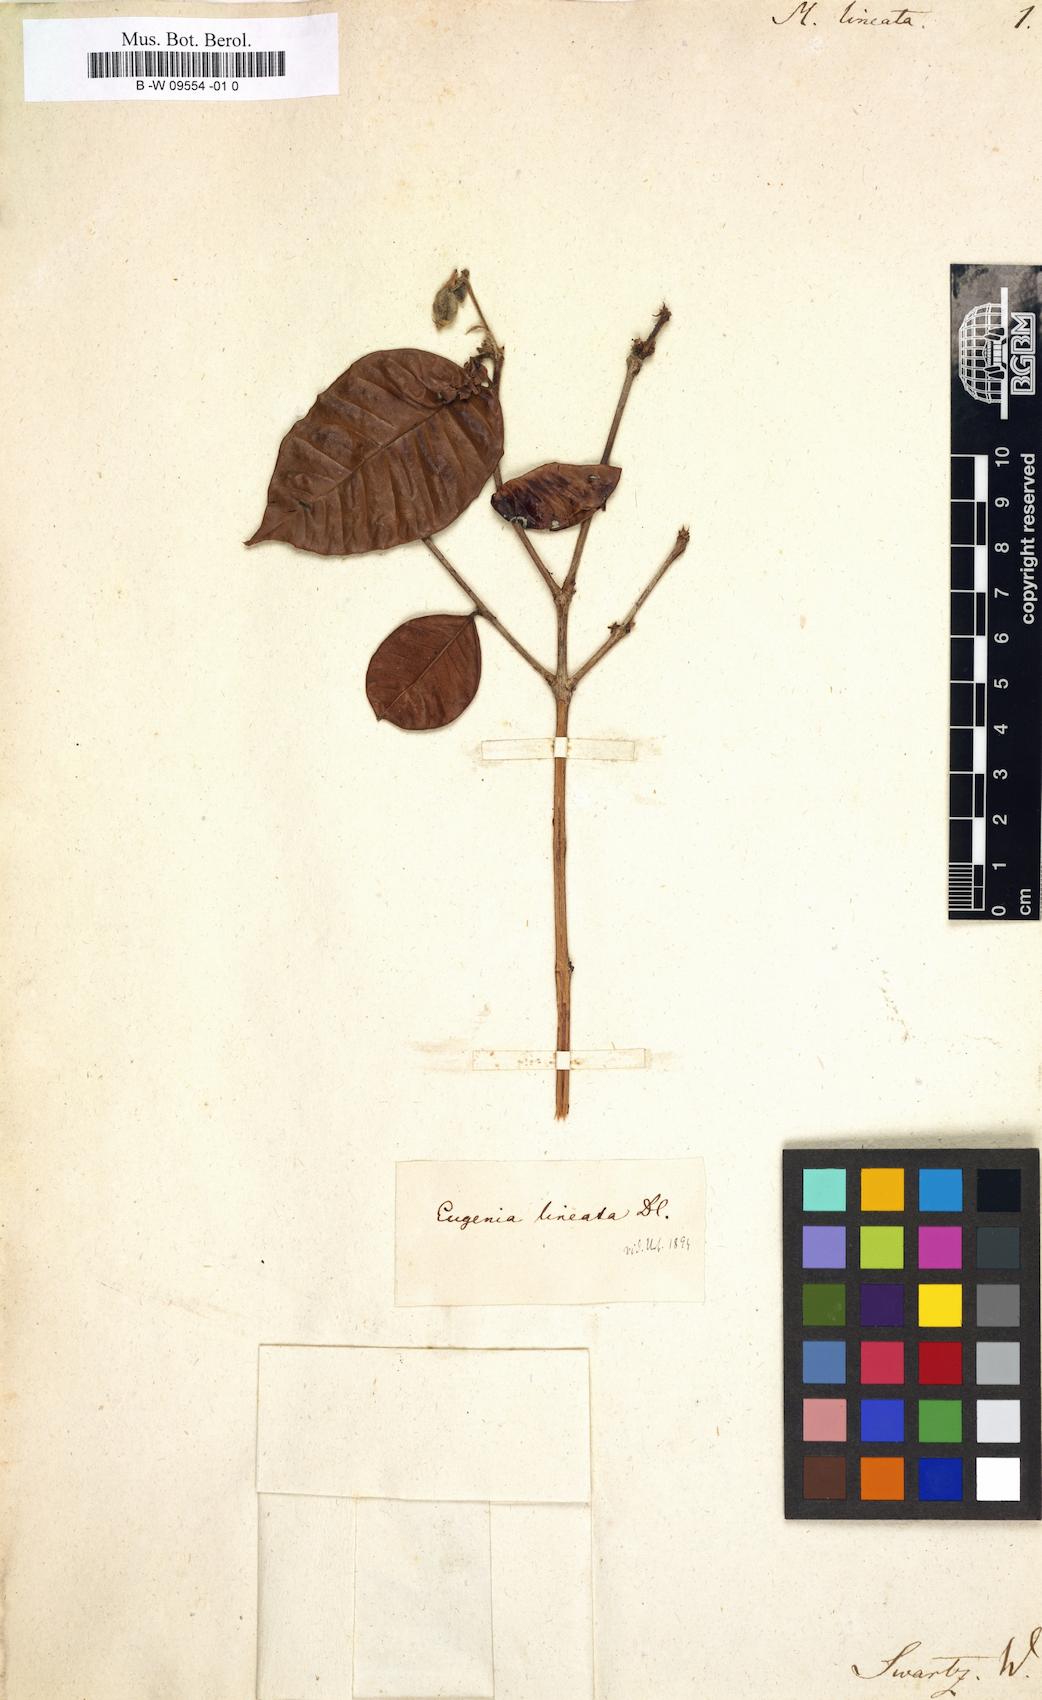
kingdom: Plantae
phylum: Tracheophyta
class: Magnoliopsida
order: Myrtales
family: Myrtaceae
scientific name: Myrtaceae
